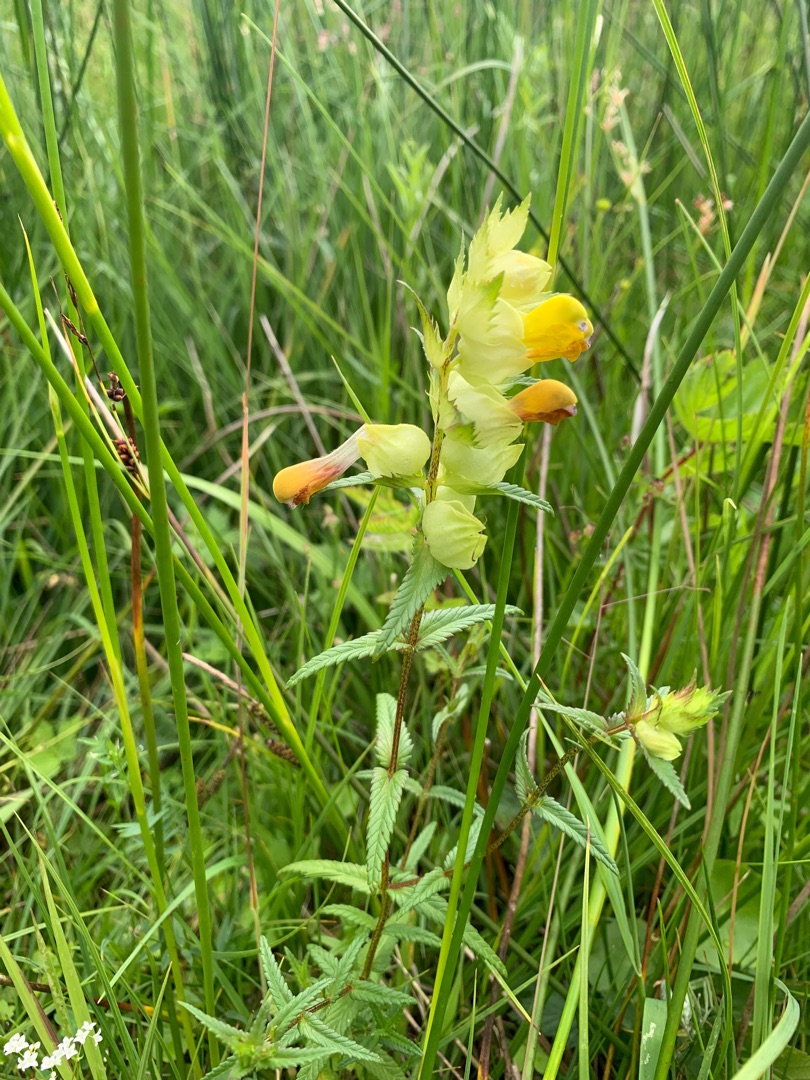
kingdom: Plantae
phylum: Tracheophyta
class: Magnoliopsida
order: Lamiales
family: Orobanchaceae
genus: Rhinanthus
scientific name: Rhinanthus
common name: Stor skjaller
